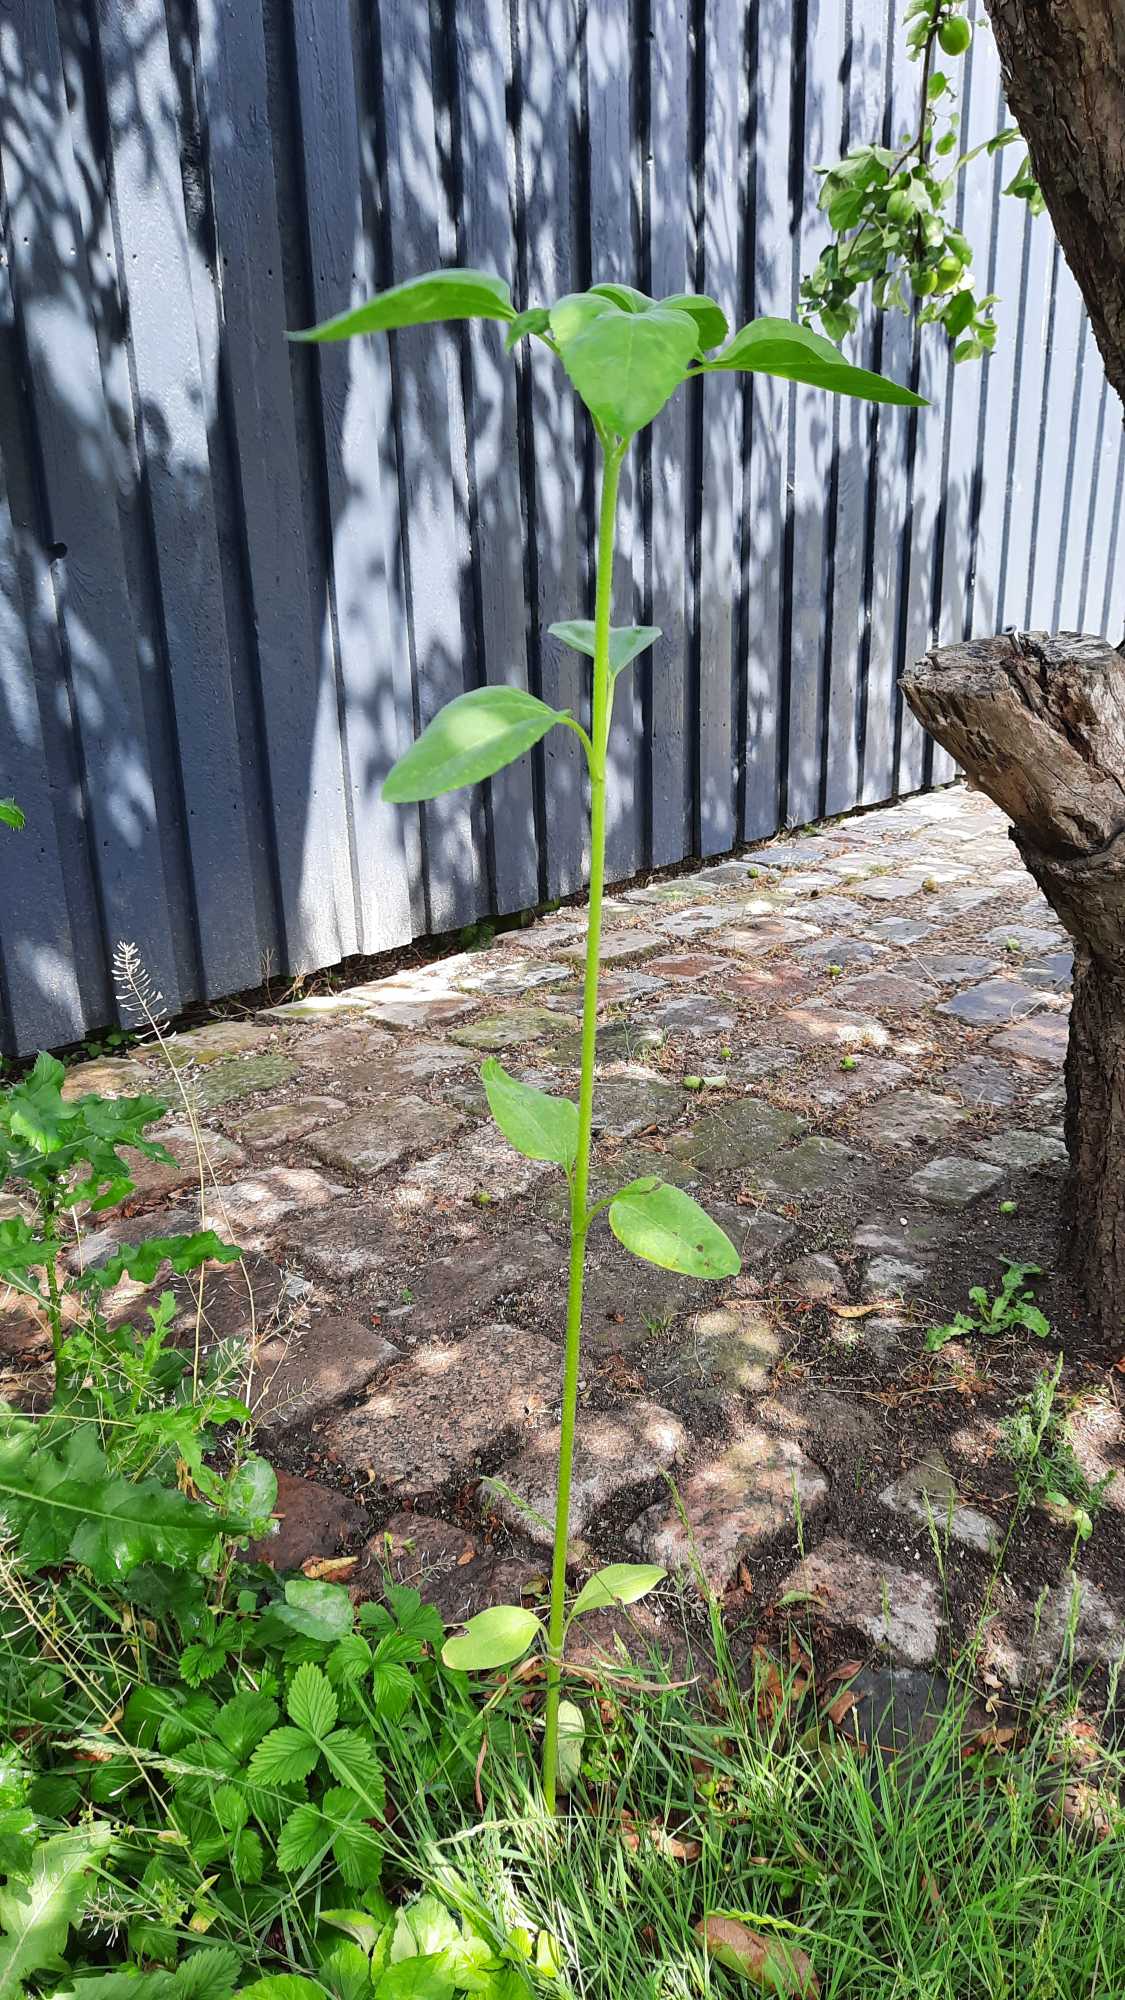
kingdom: Plantae
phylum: Tracheophyta
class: Magnoliopsida
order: Asterales
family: Asteraceae
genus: Helianthus
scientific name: Helianthus annuus
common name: Solsikke
